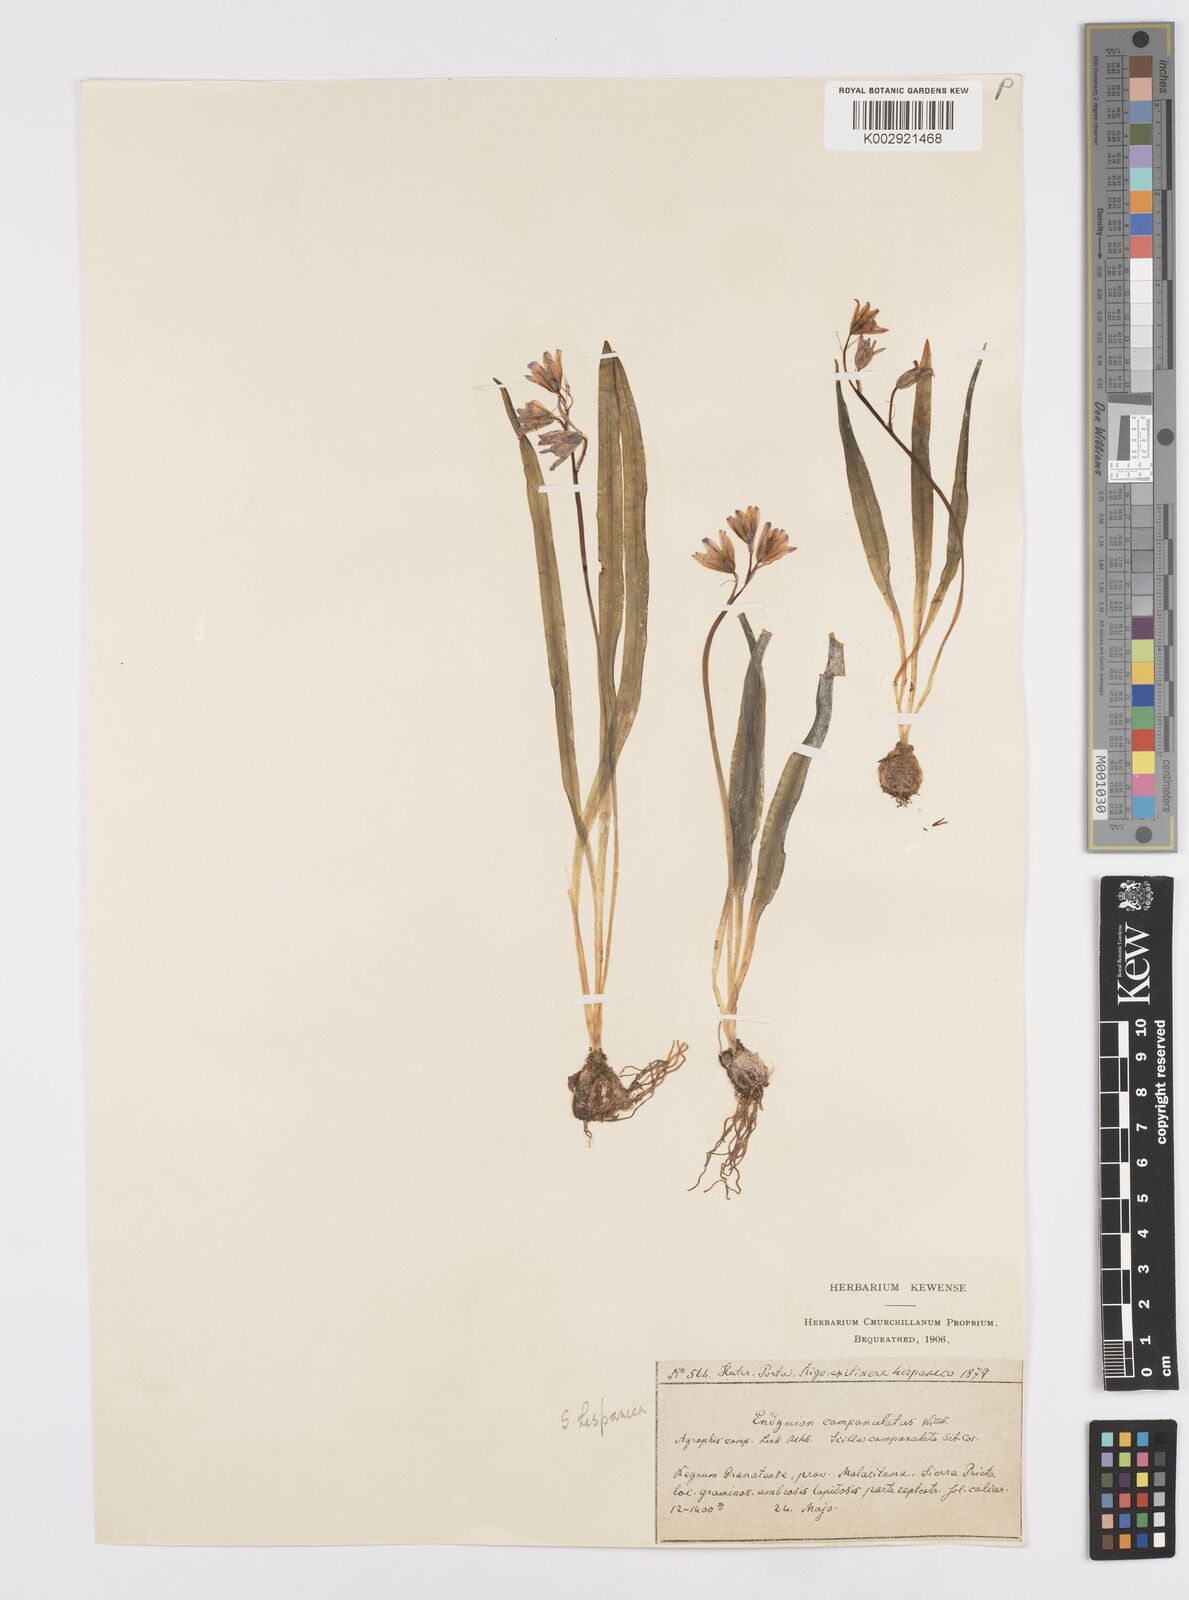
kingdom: Plantae
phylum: Tracheophyta
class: Liliopsida
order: Asparagales
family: Asparagaceae
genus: Hyacinthoides
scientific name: Hyacinthoides hispanica
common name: Spanish bluebell
